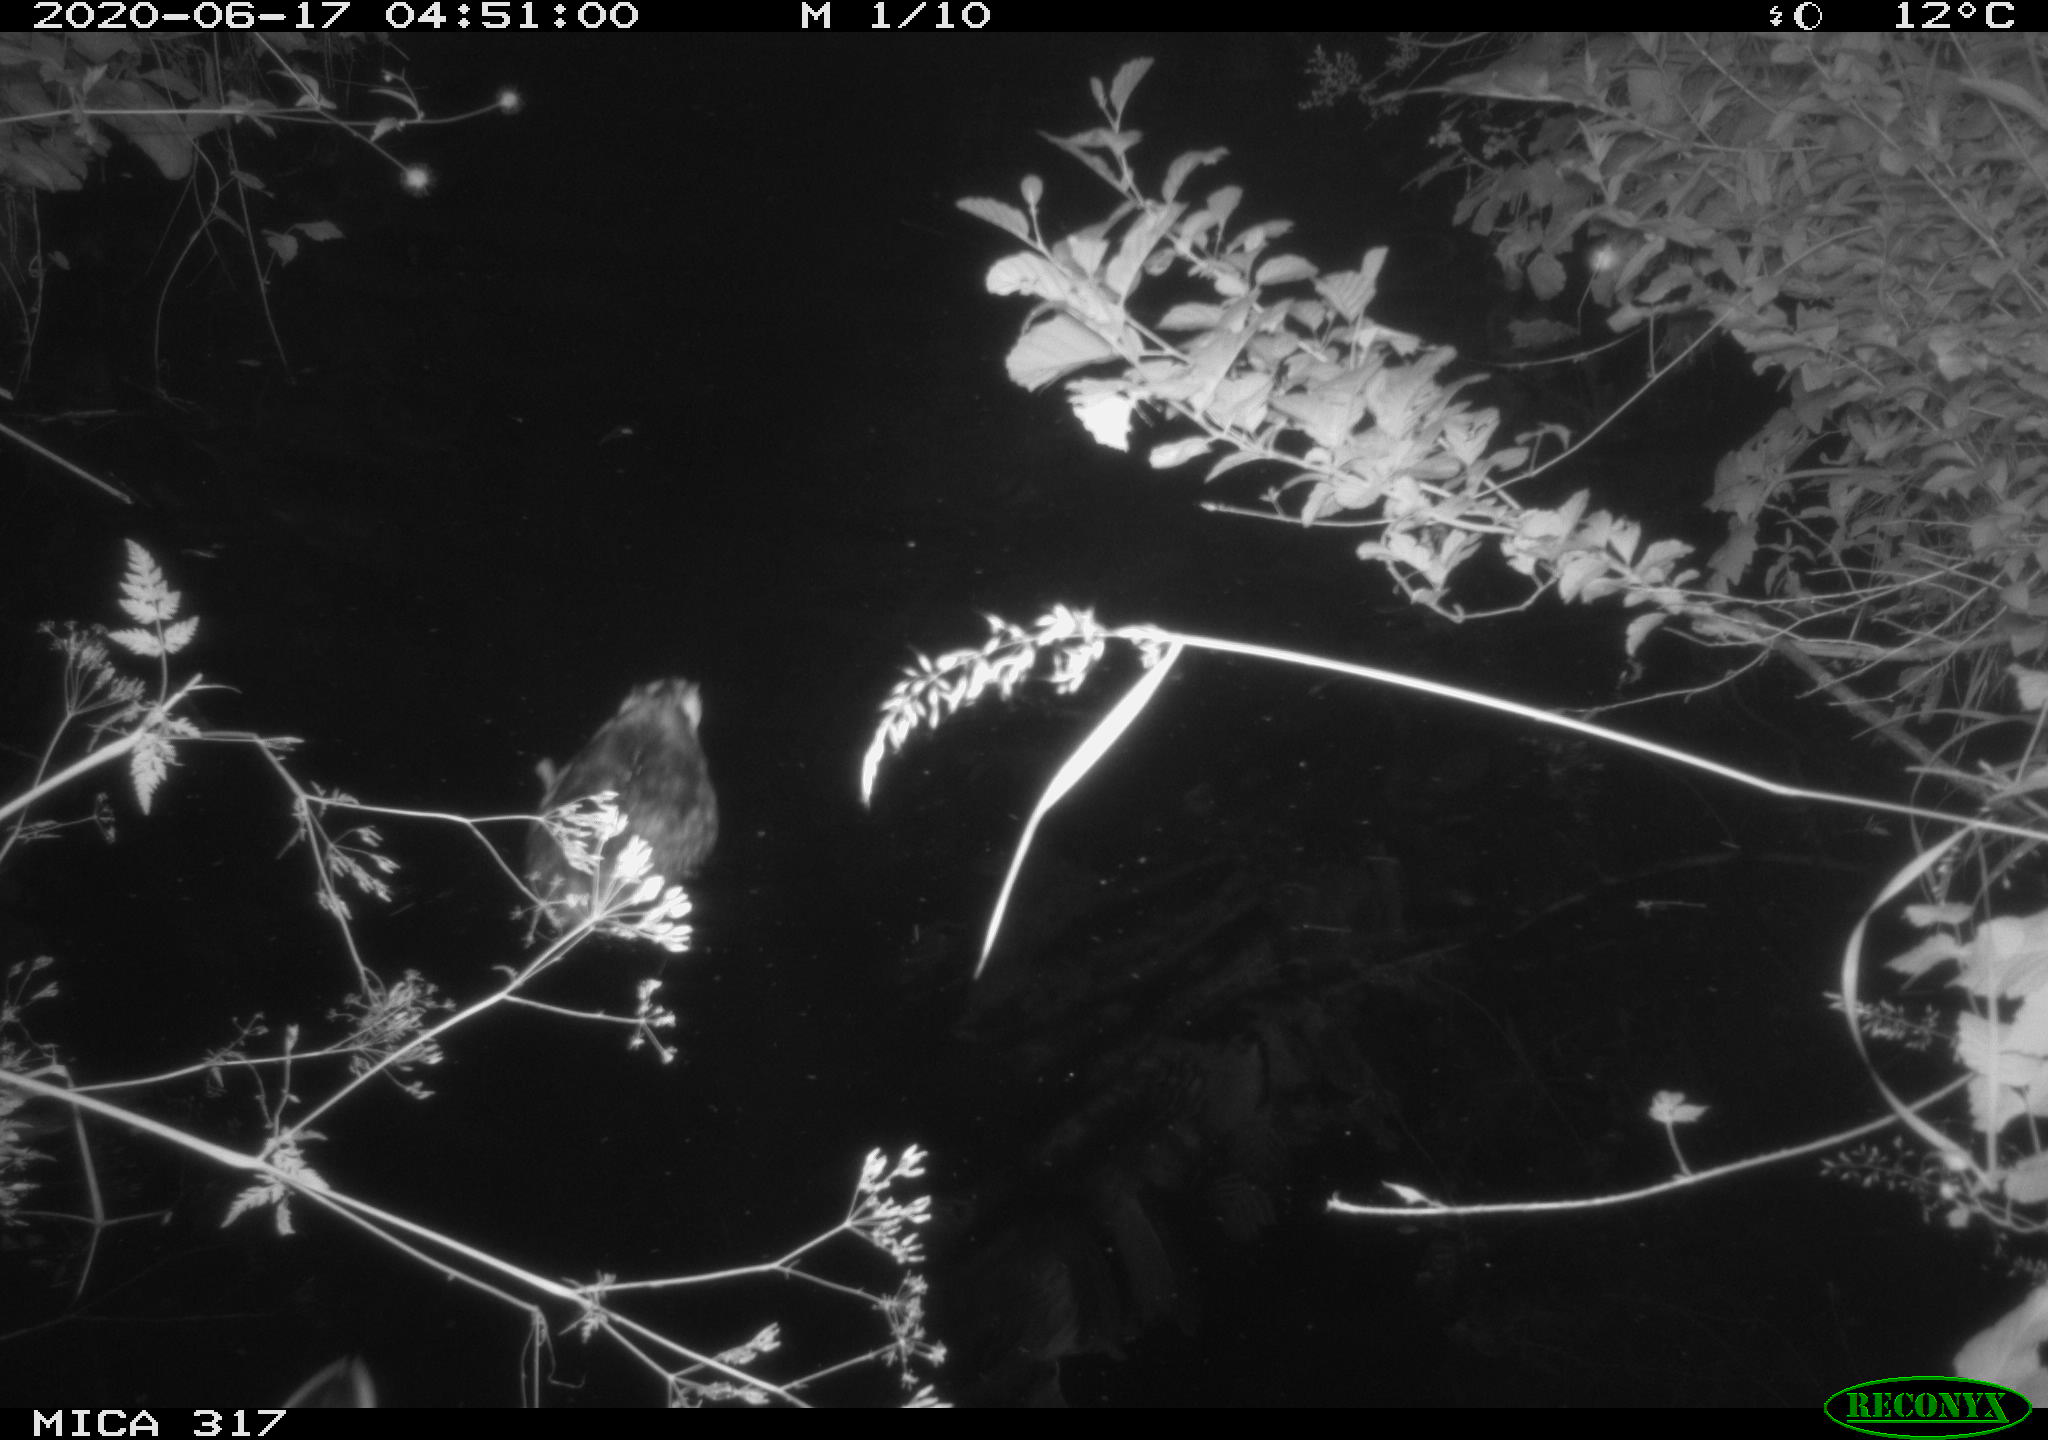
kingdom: Animalia
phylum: Chordata
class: Aves
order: Anseriformes
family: Anatidae
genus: Anas
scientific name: Anas platyrhynchos
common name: Mallard
